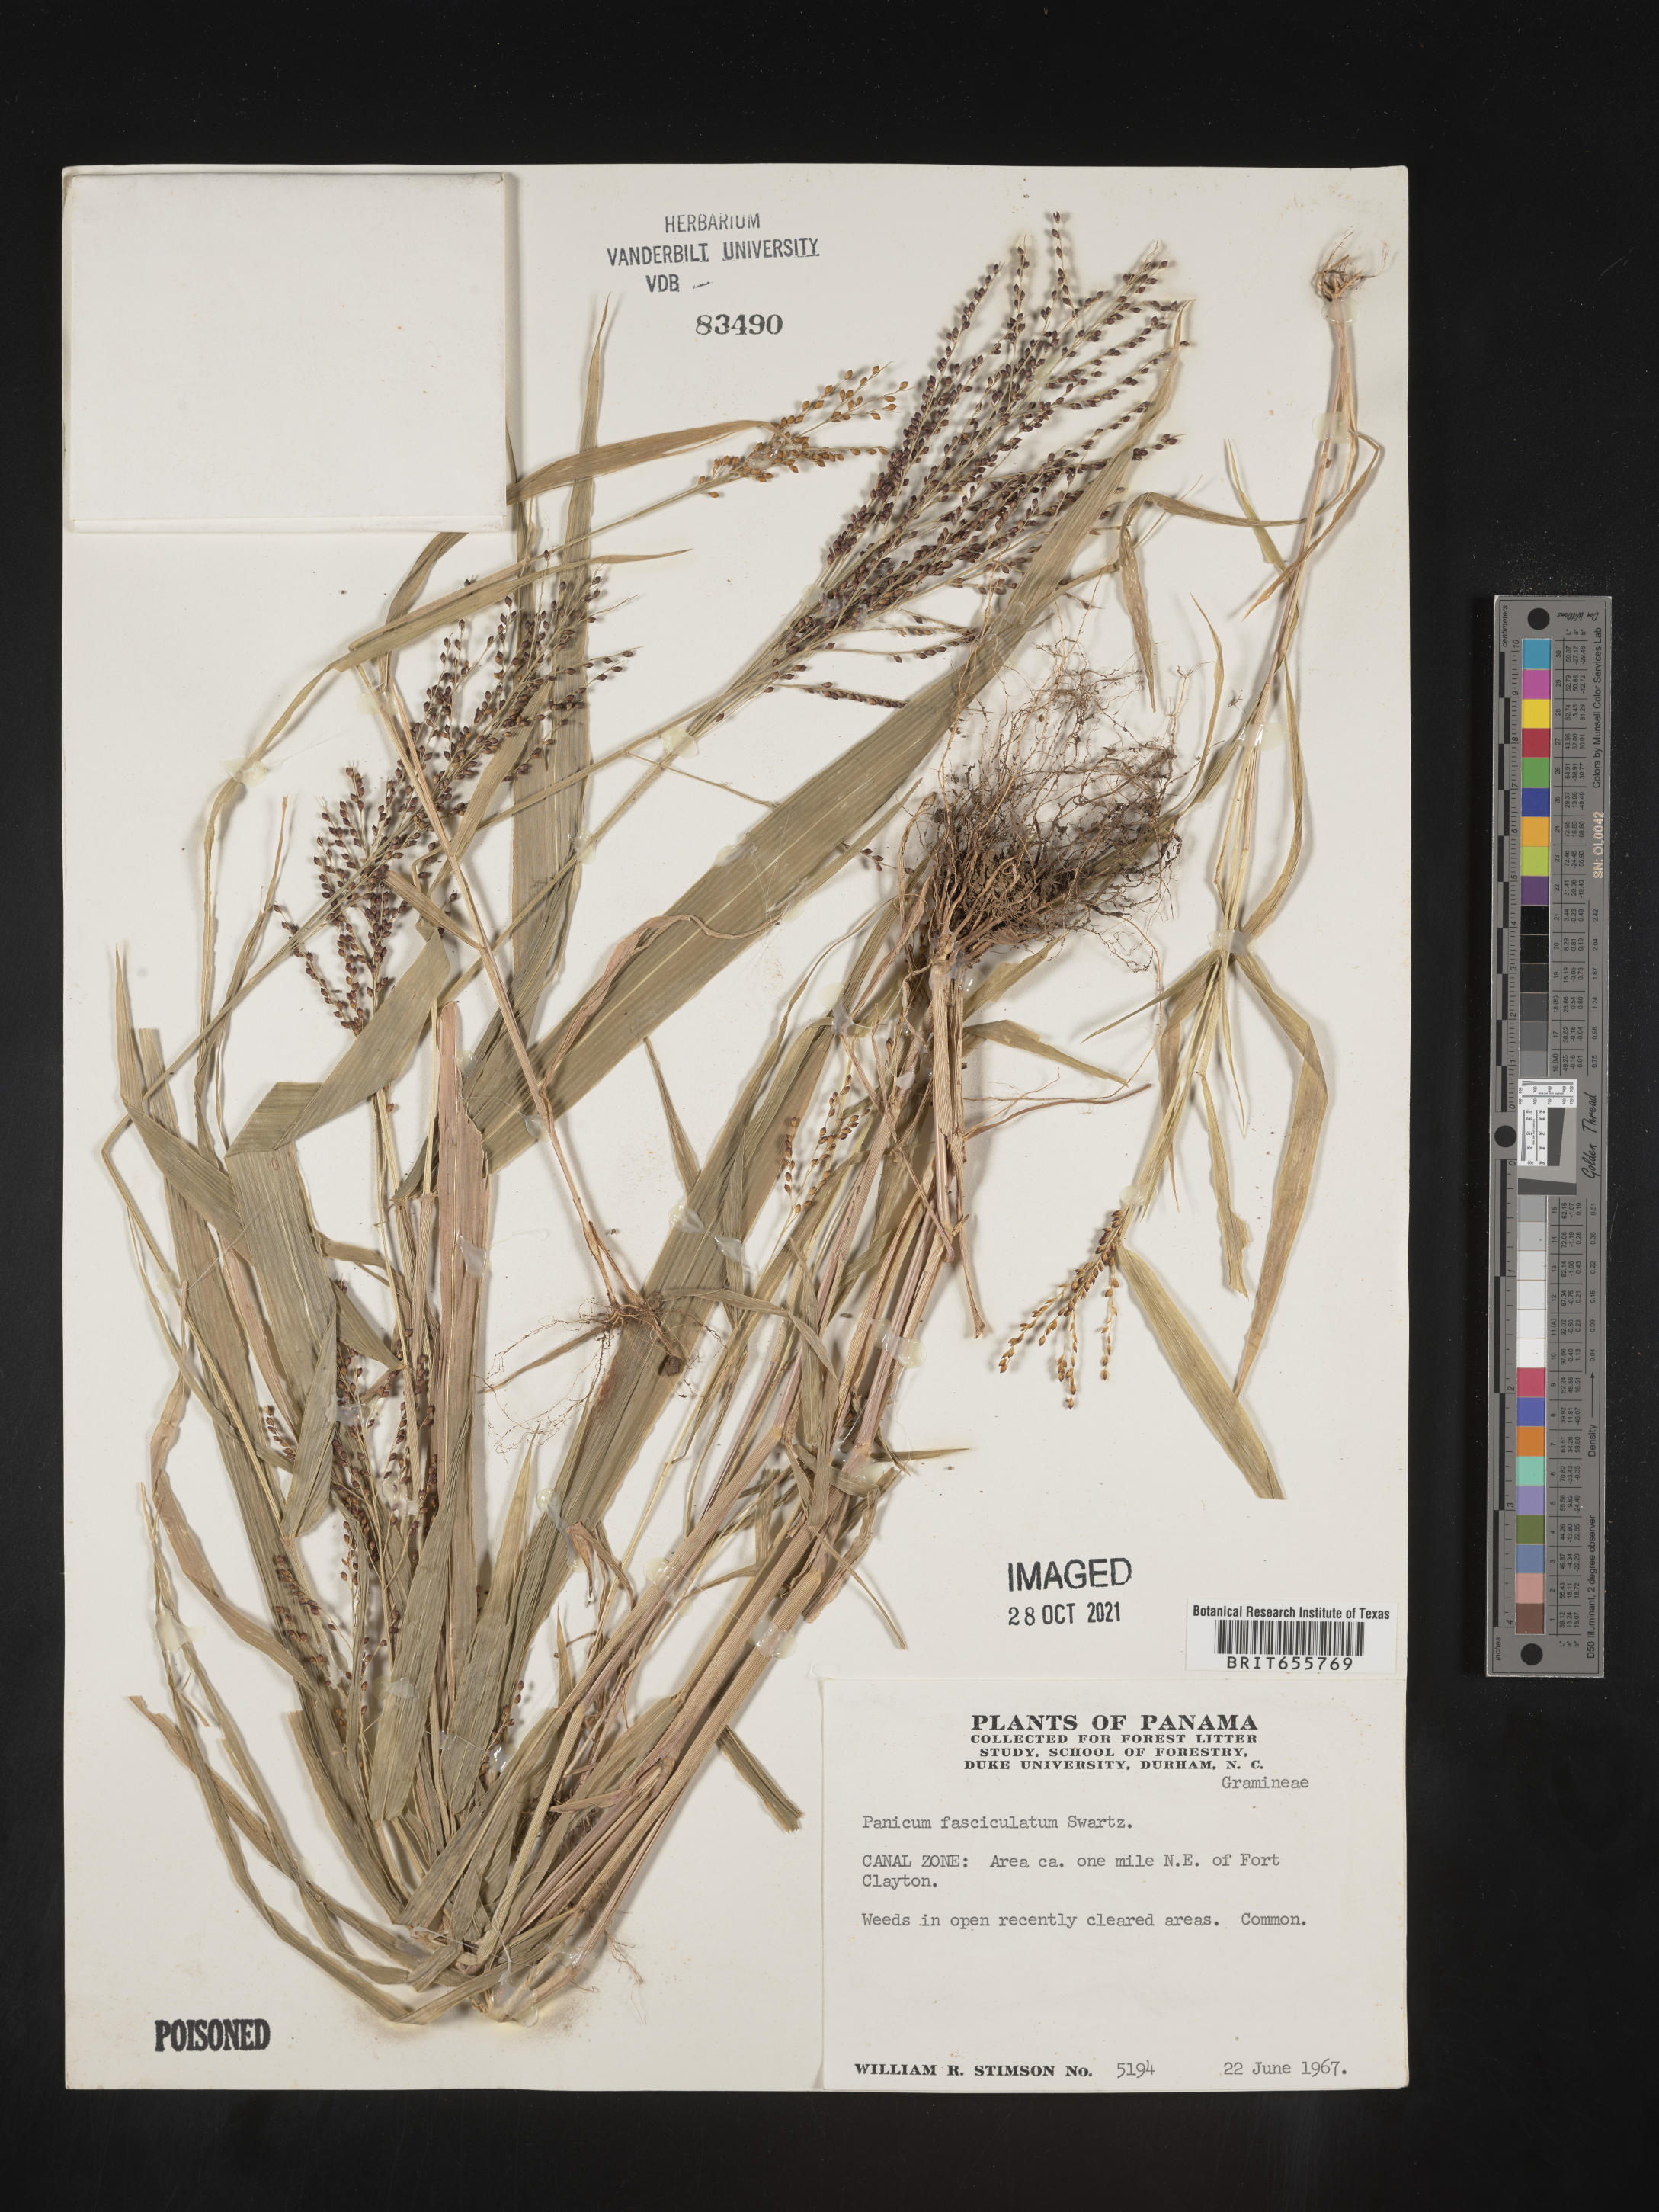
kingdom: Plantae
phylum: Tracheophyta
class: Liliopsida
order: Poales
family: Poaceae
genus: Panicum
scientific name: Panicum
